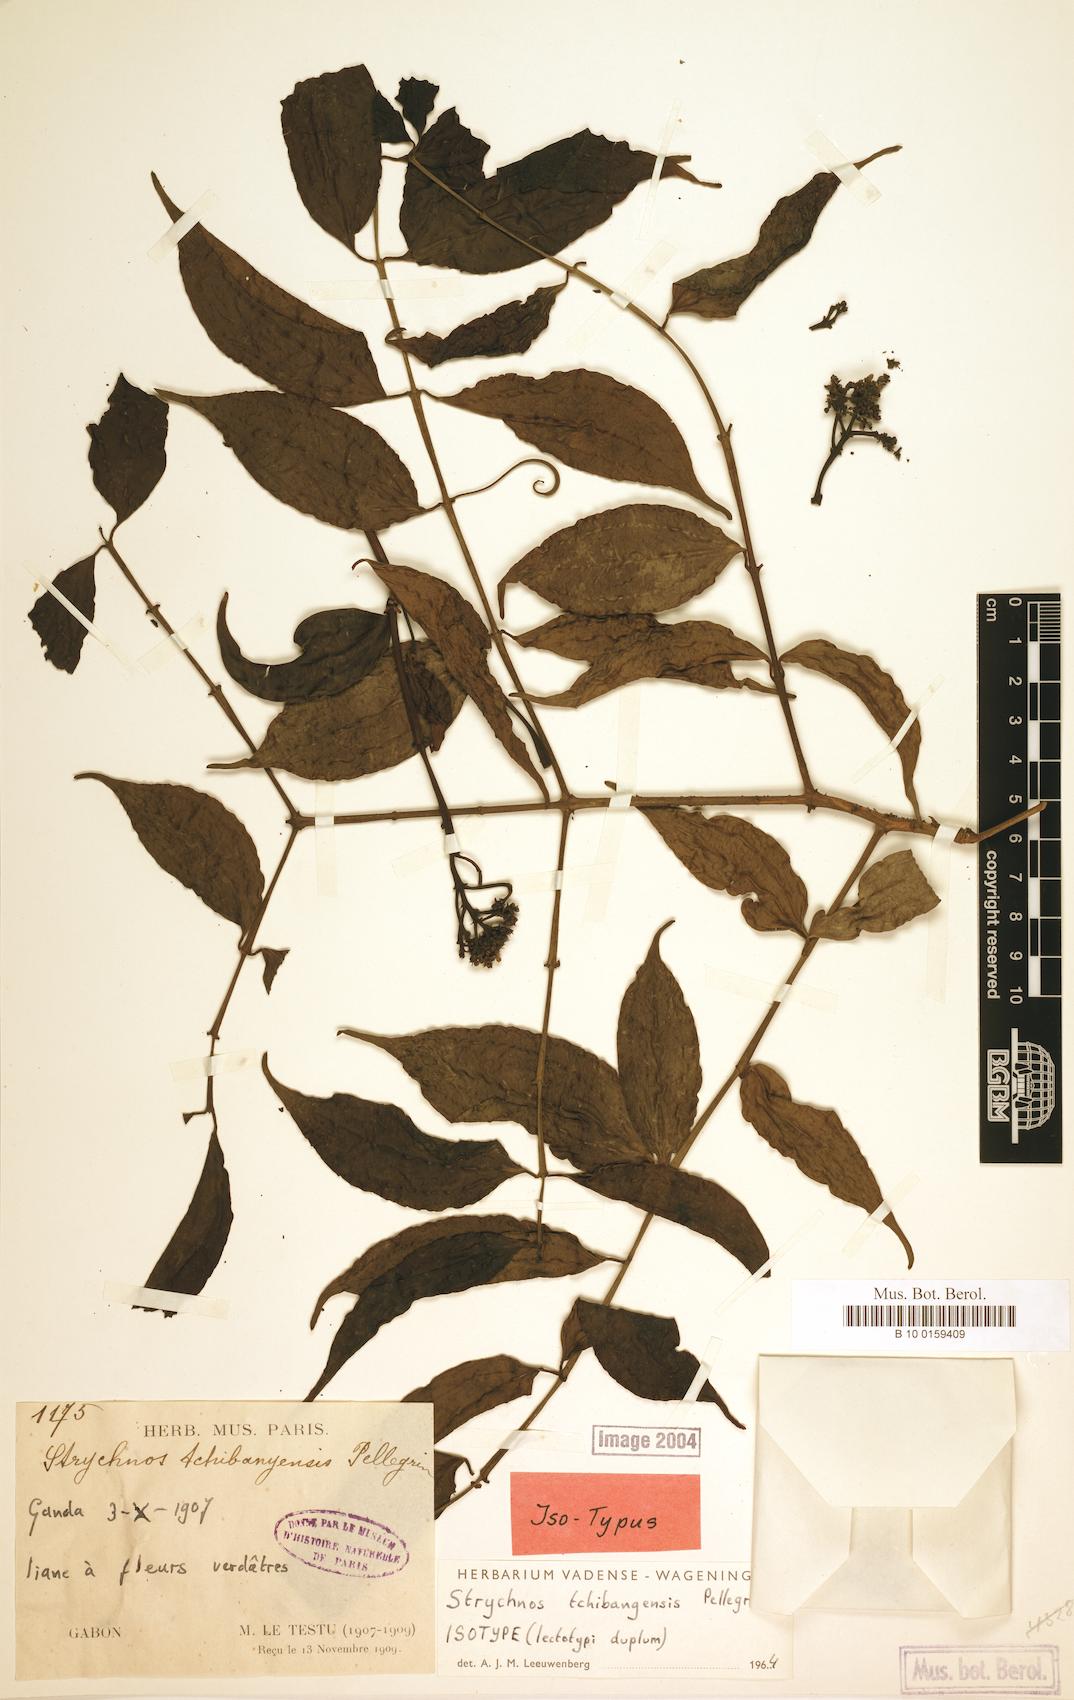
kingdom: Plantae
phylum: Tracheophyta
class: Magnoliopsida
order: Gentianales
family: Loganiaceae
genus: Strychnos
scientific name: Strychnos tchibangensis
